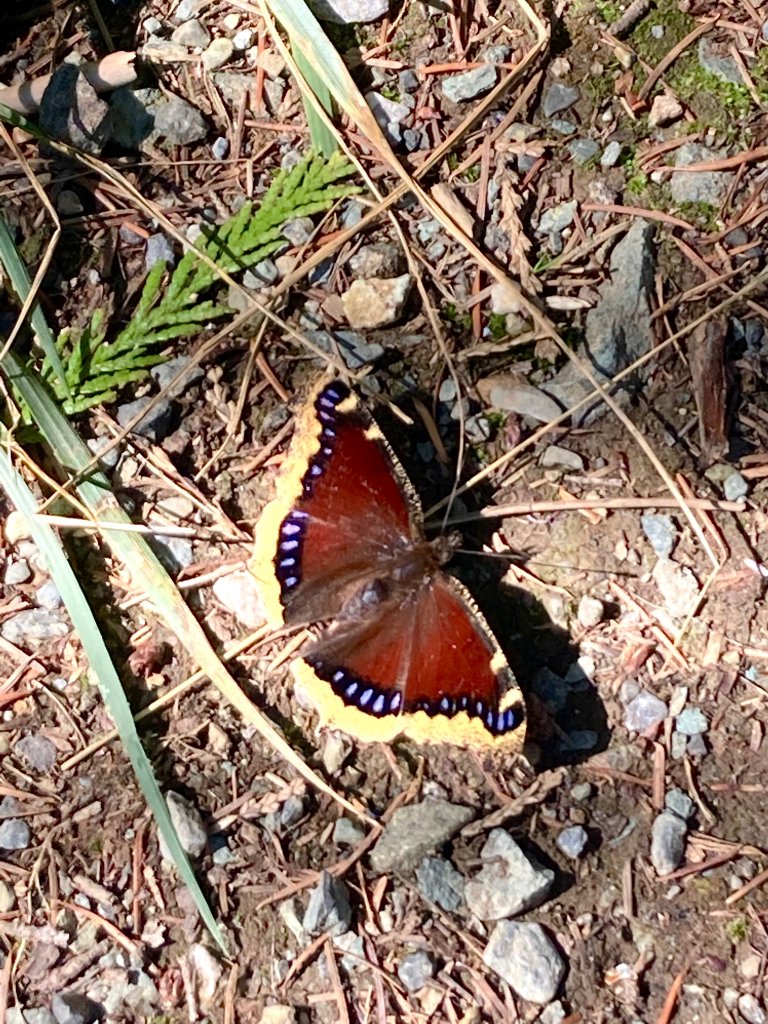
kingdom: Animalia
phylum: Arthropoda
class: Insecta
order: Lepidoptera
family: Nymphalidae
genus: Nymphalis
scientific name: Nymphalis antiopa
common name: Mourning Cloak
